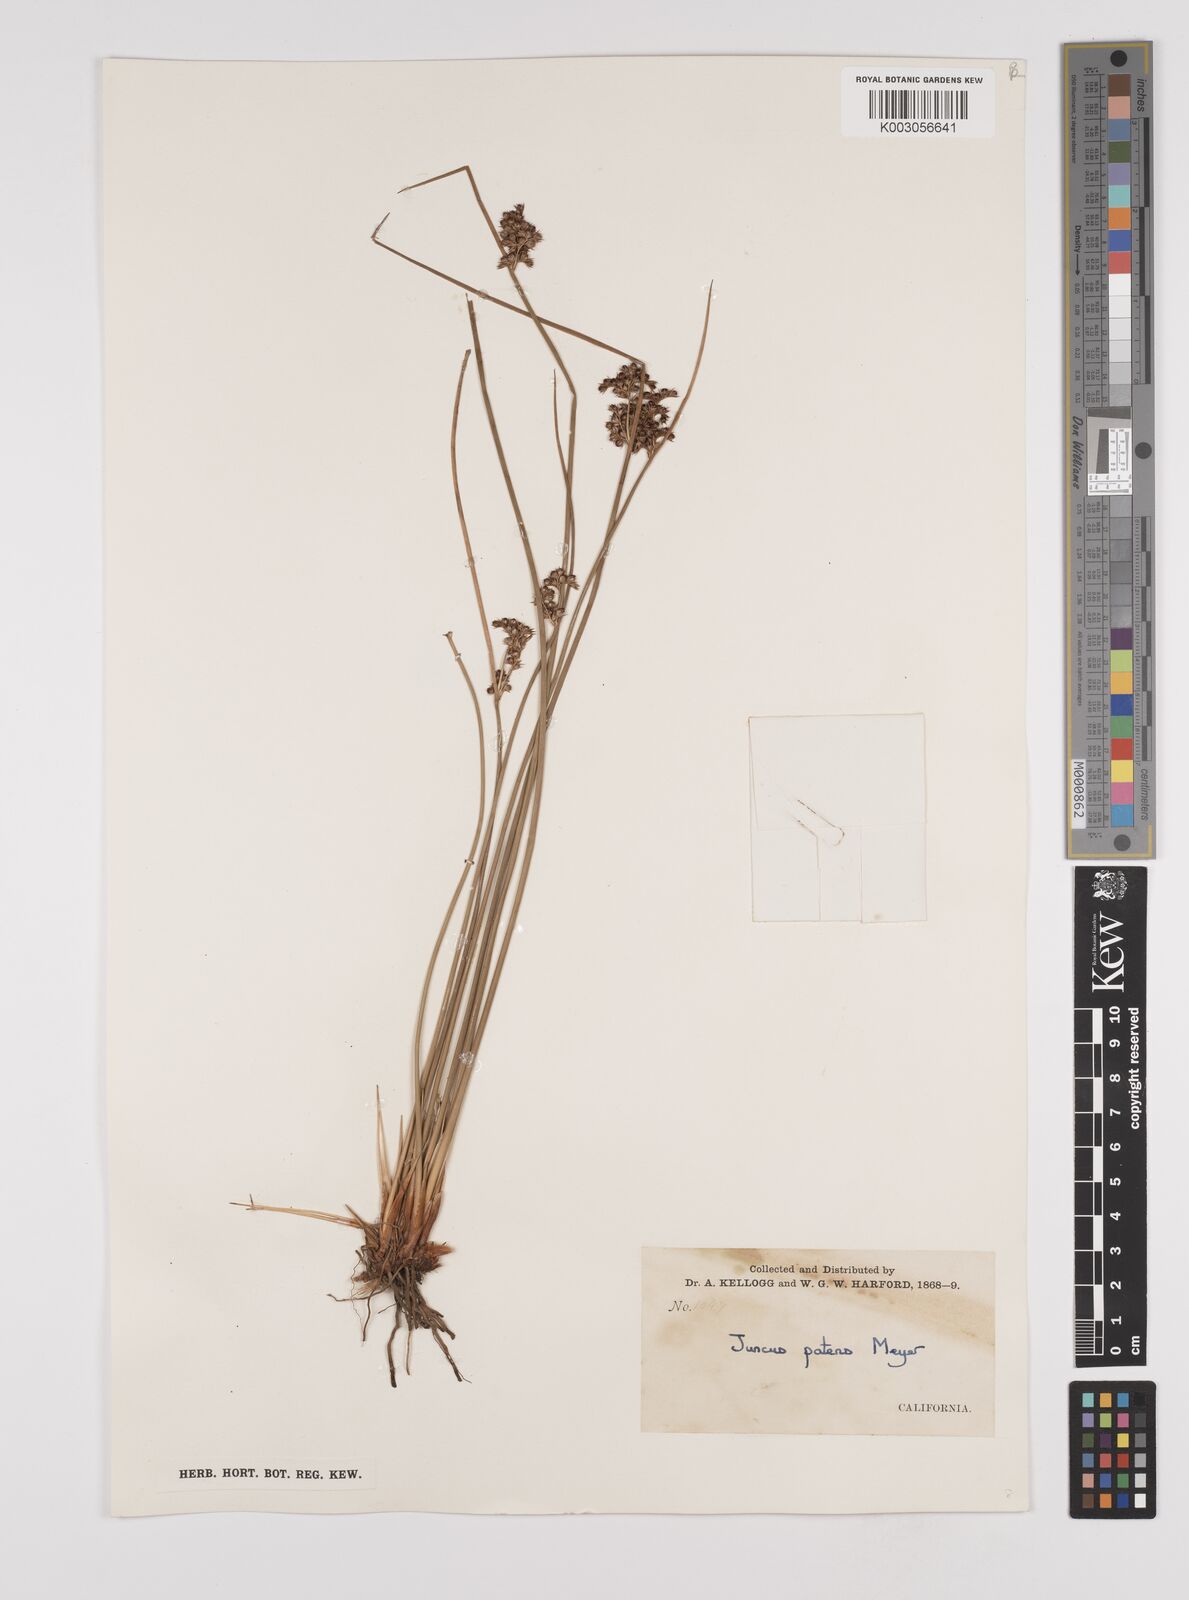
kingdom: Plantae
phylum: Tracheophyta
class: Liliopsida
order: Poales
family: Juncaceae
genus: Juncus
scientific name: Juncus patens
